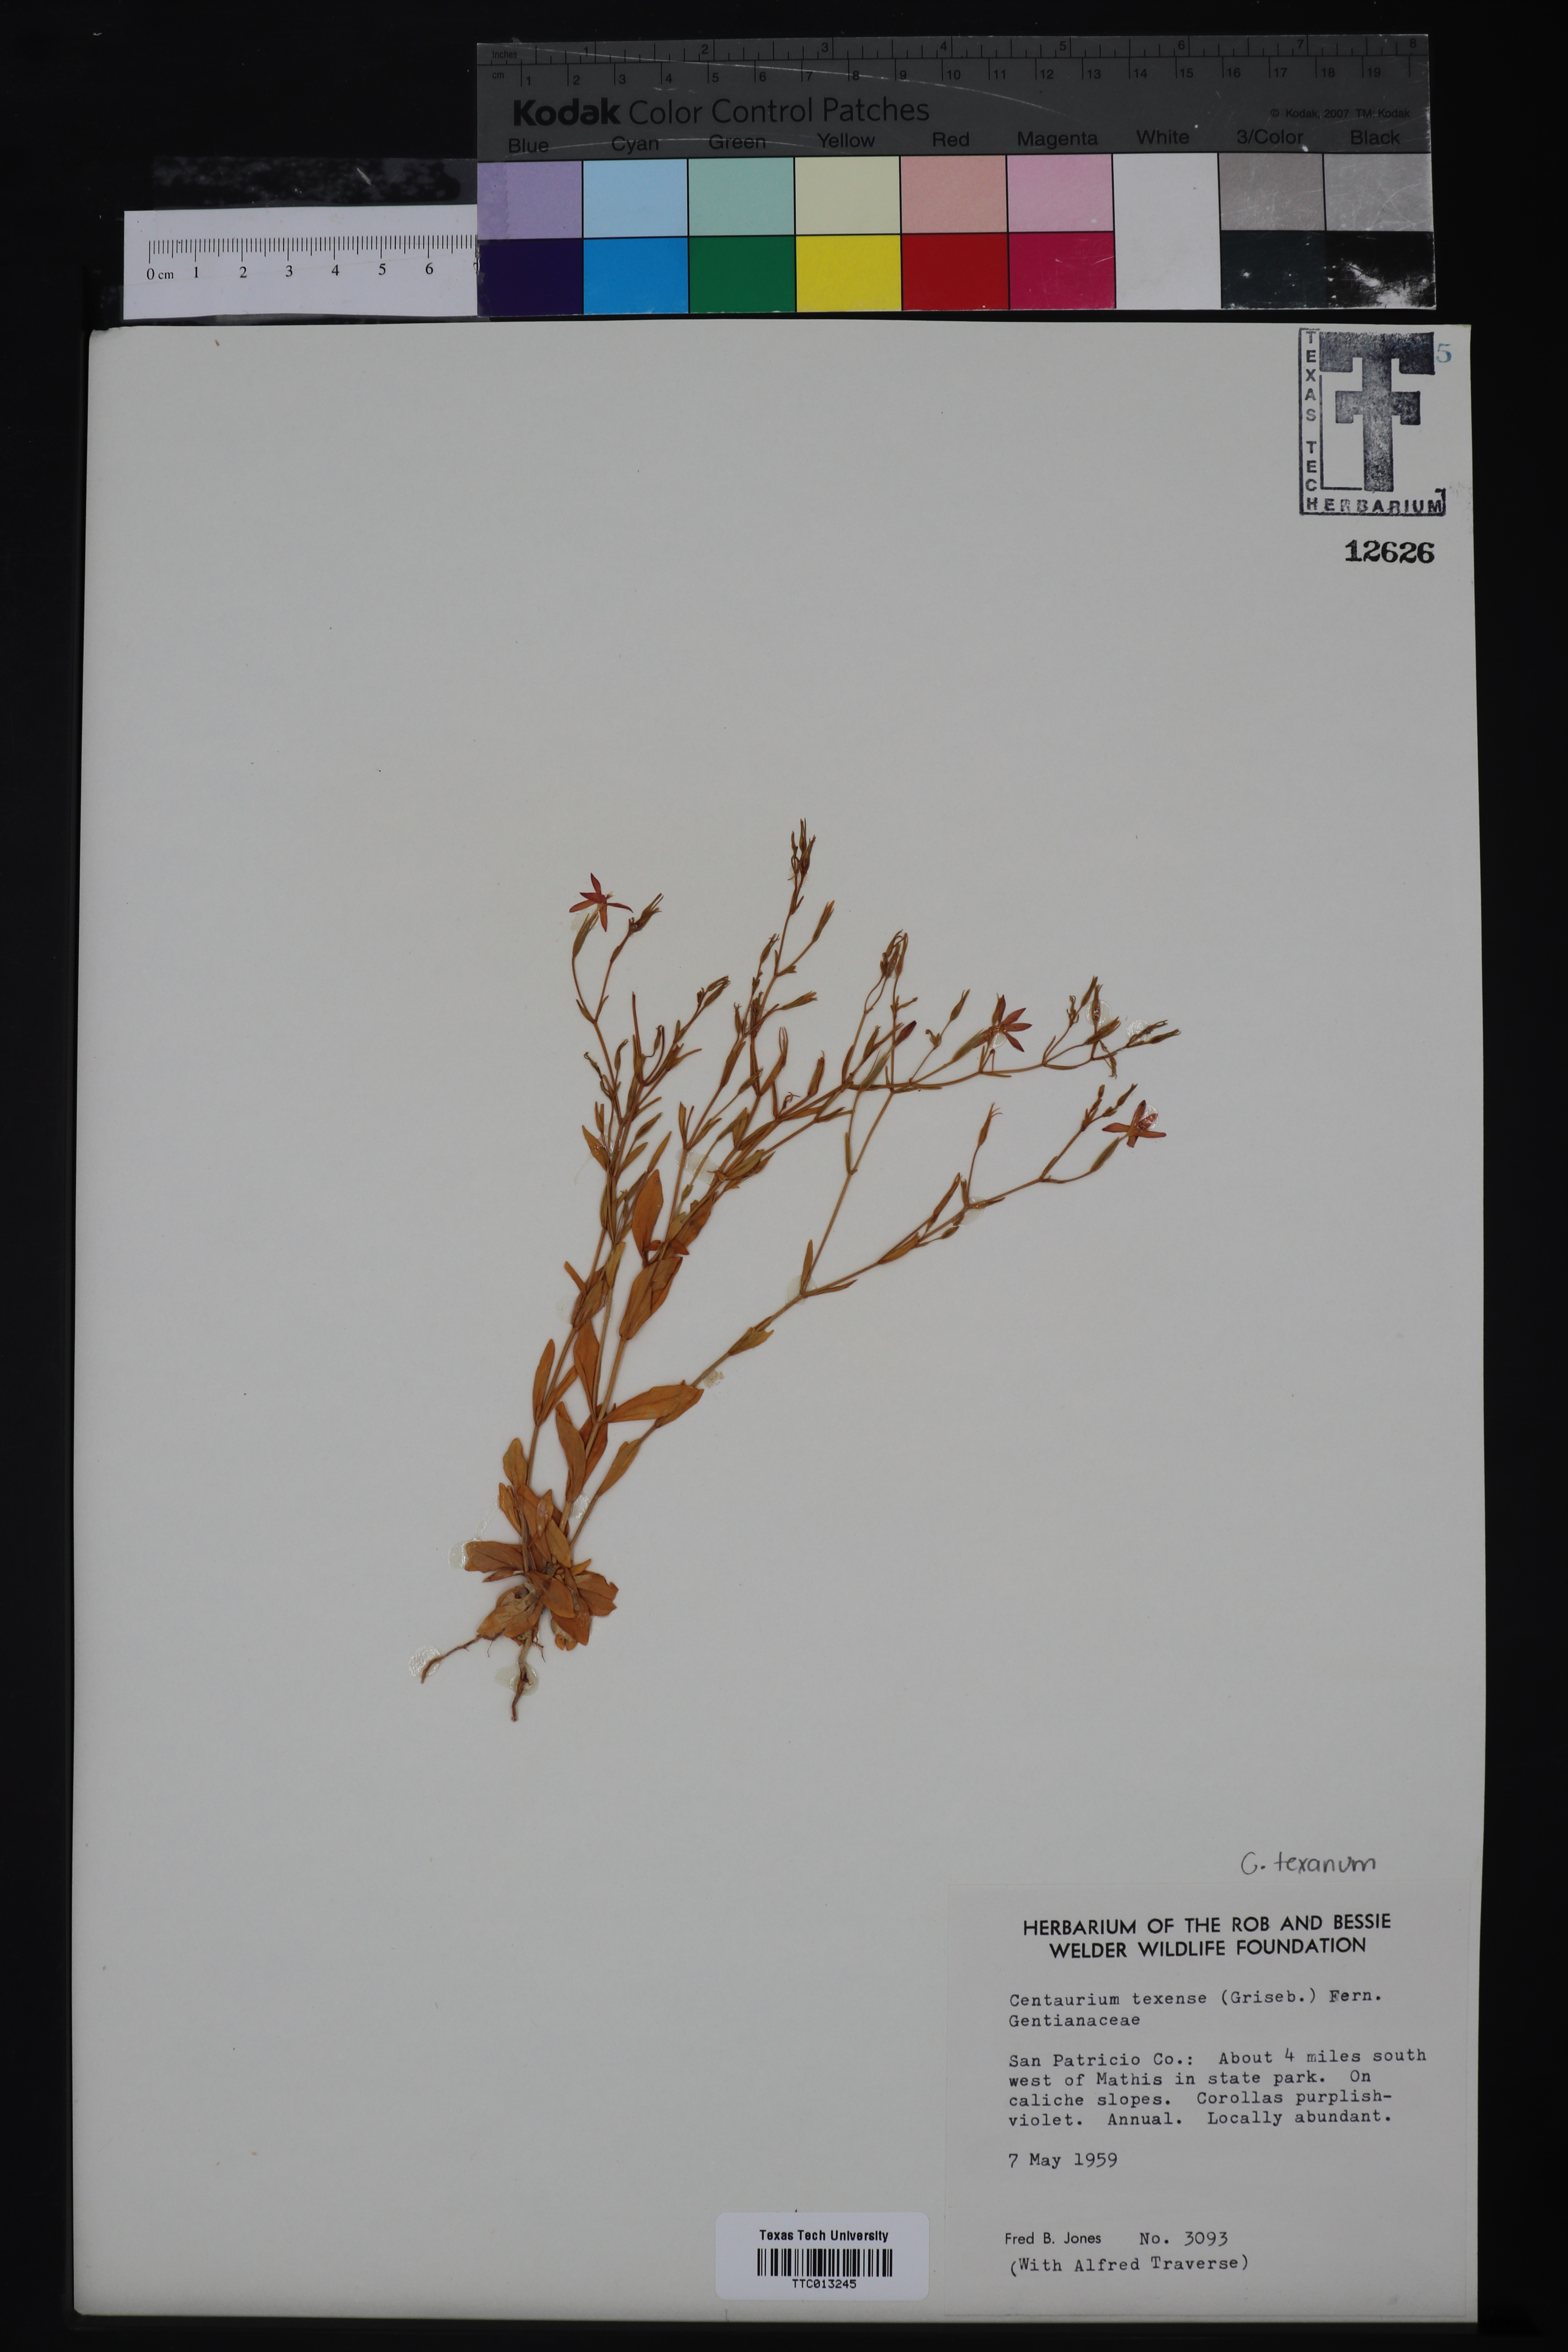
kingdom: Plantae
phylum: Tracheophyta
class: Magnoliopsida
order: Gentianales
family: Gentianaceae
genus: Zeltnera
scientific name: Zeltnera texensis
